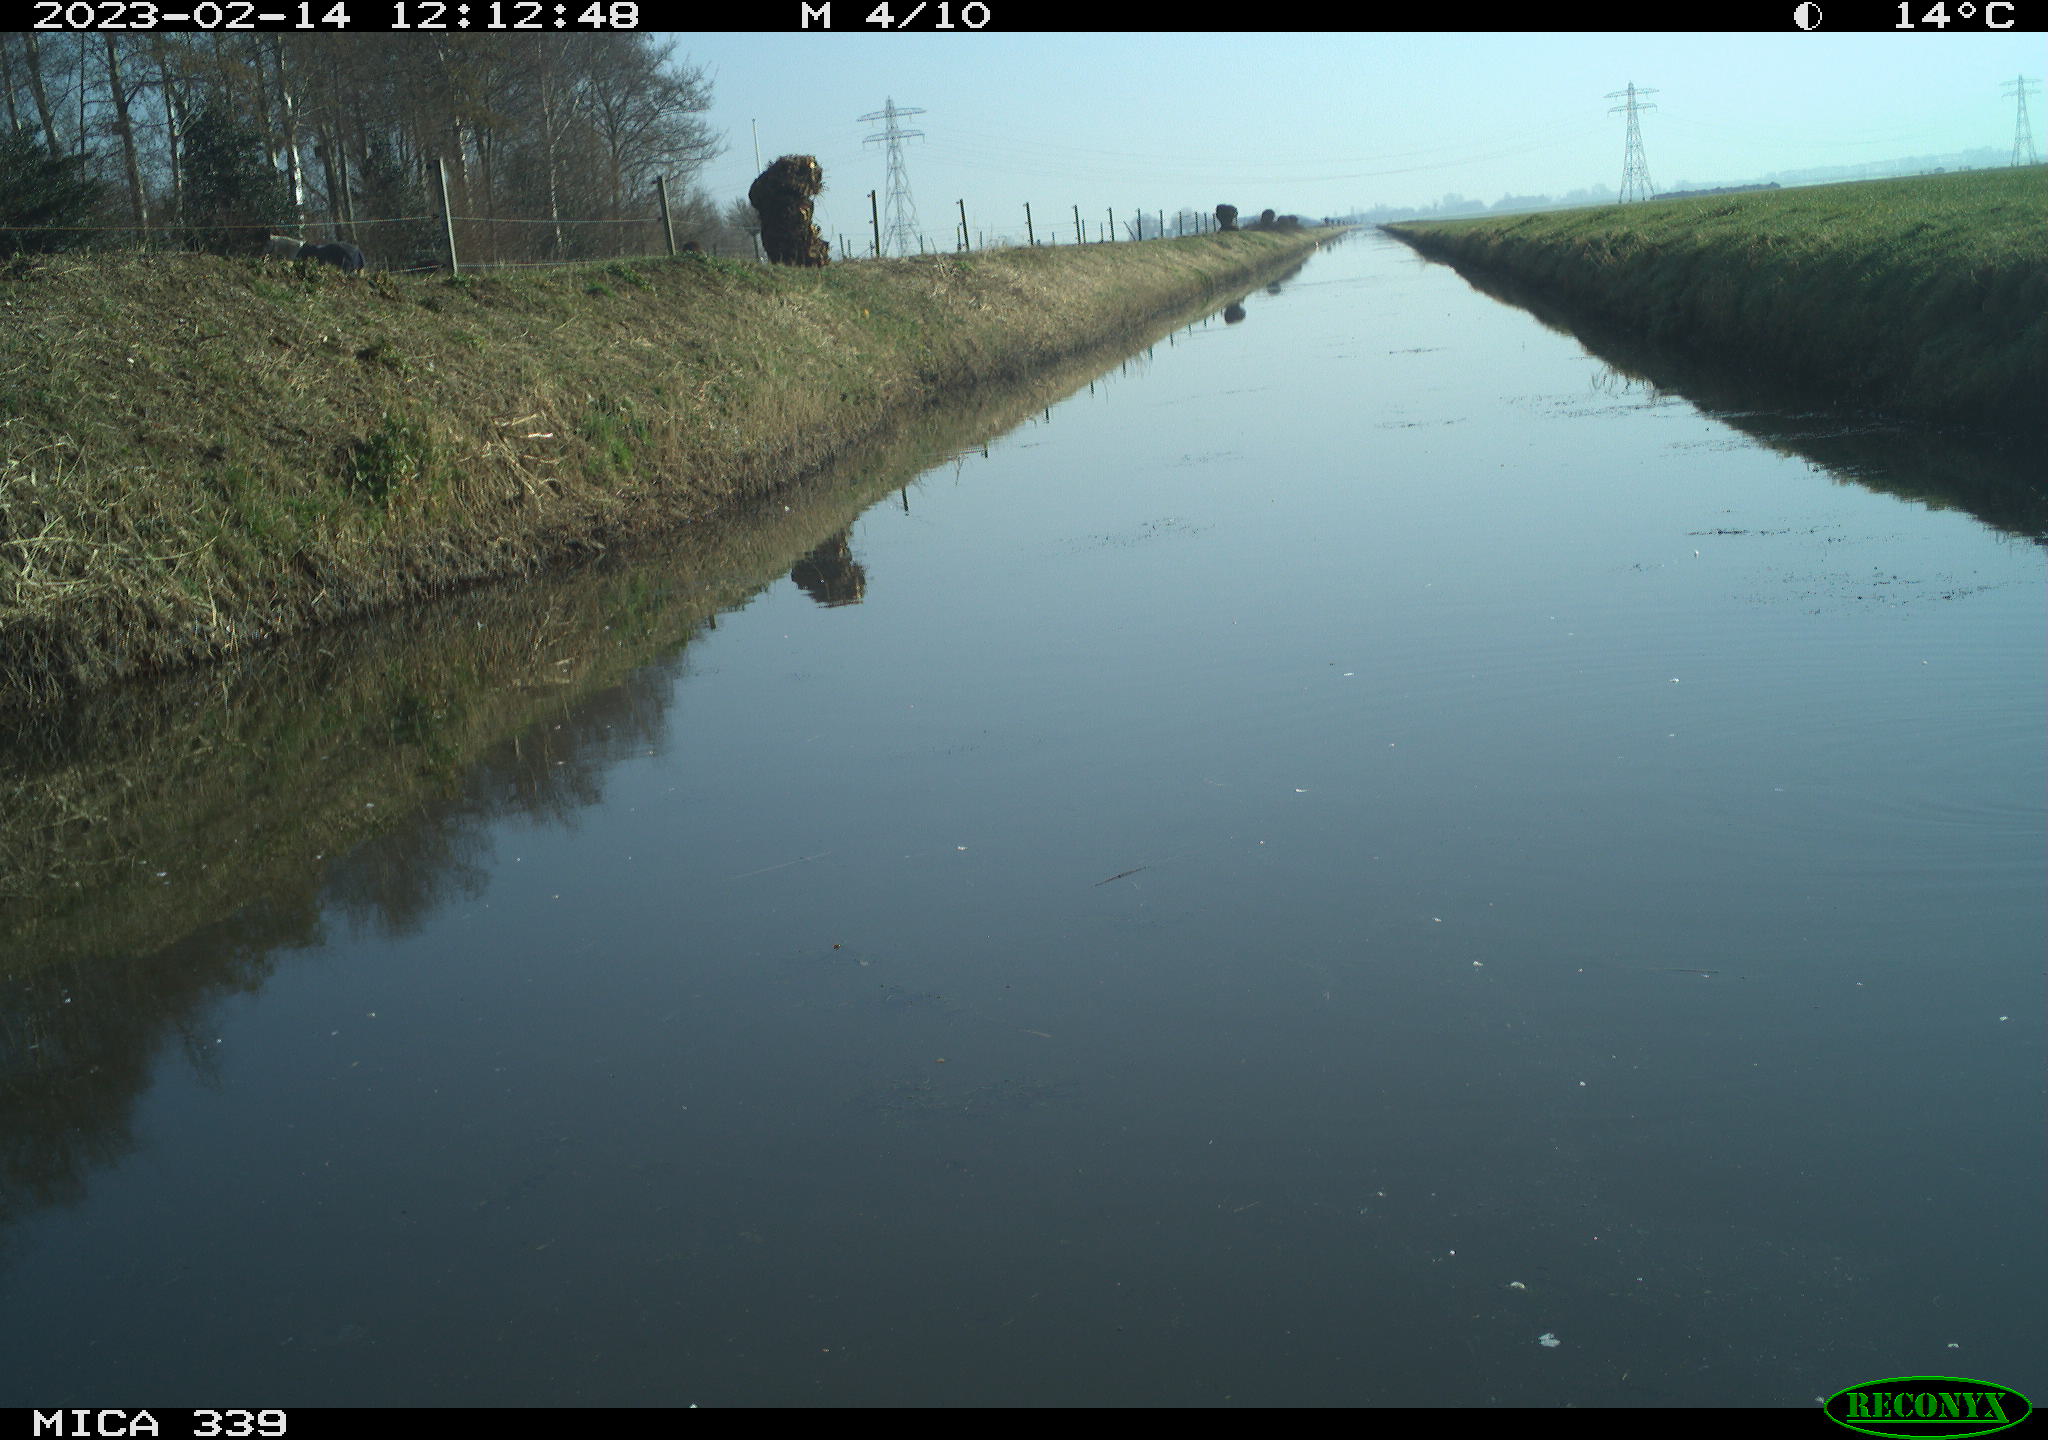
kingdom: Animalia
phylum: Chordata
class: Aves
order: Gruiformes
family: Rallidae
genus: Gallinula
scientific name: Gallinula chloropus
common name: Common moorhen
